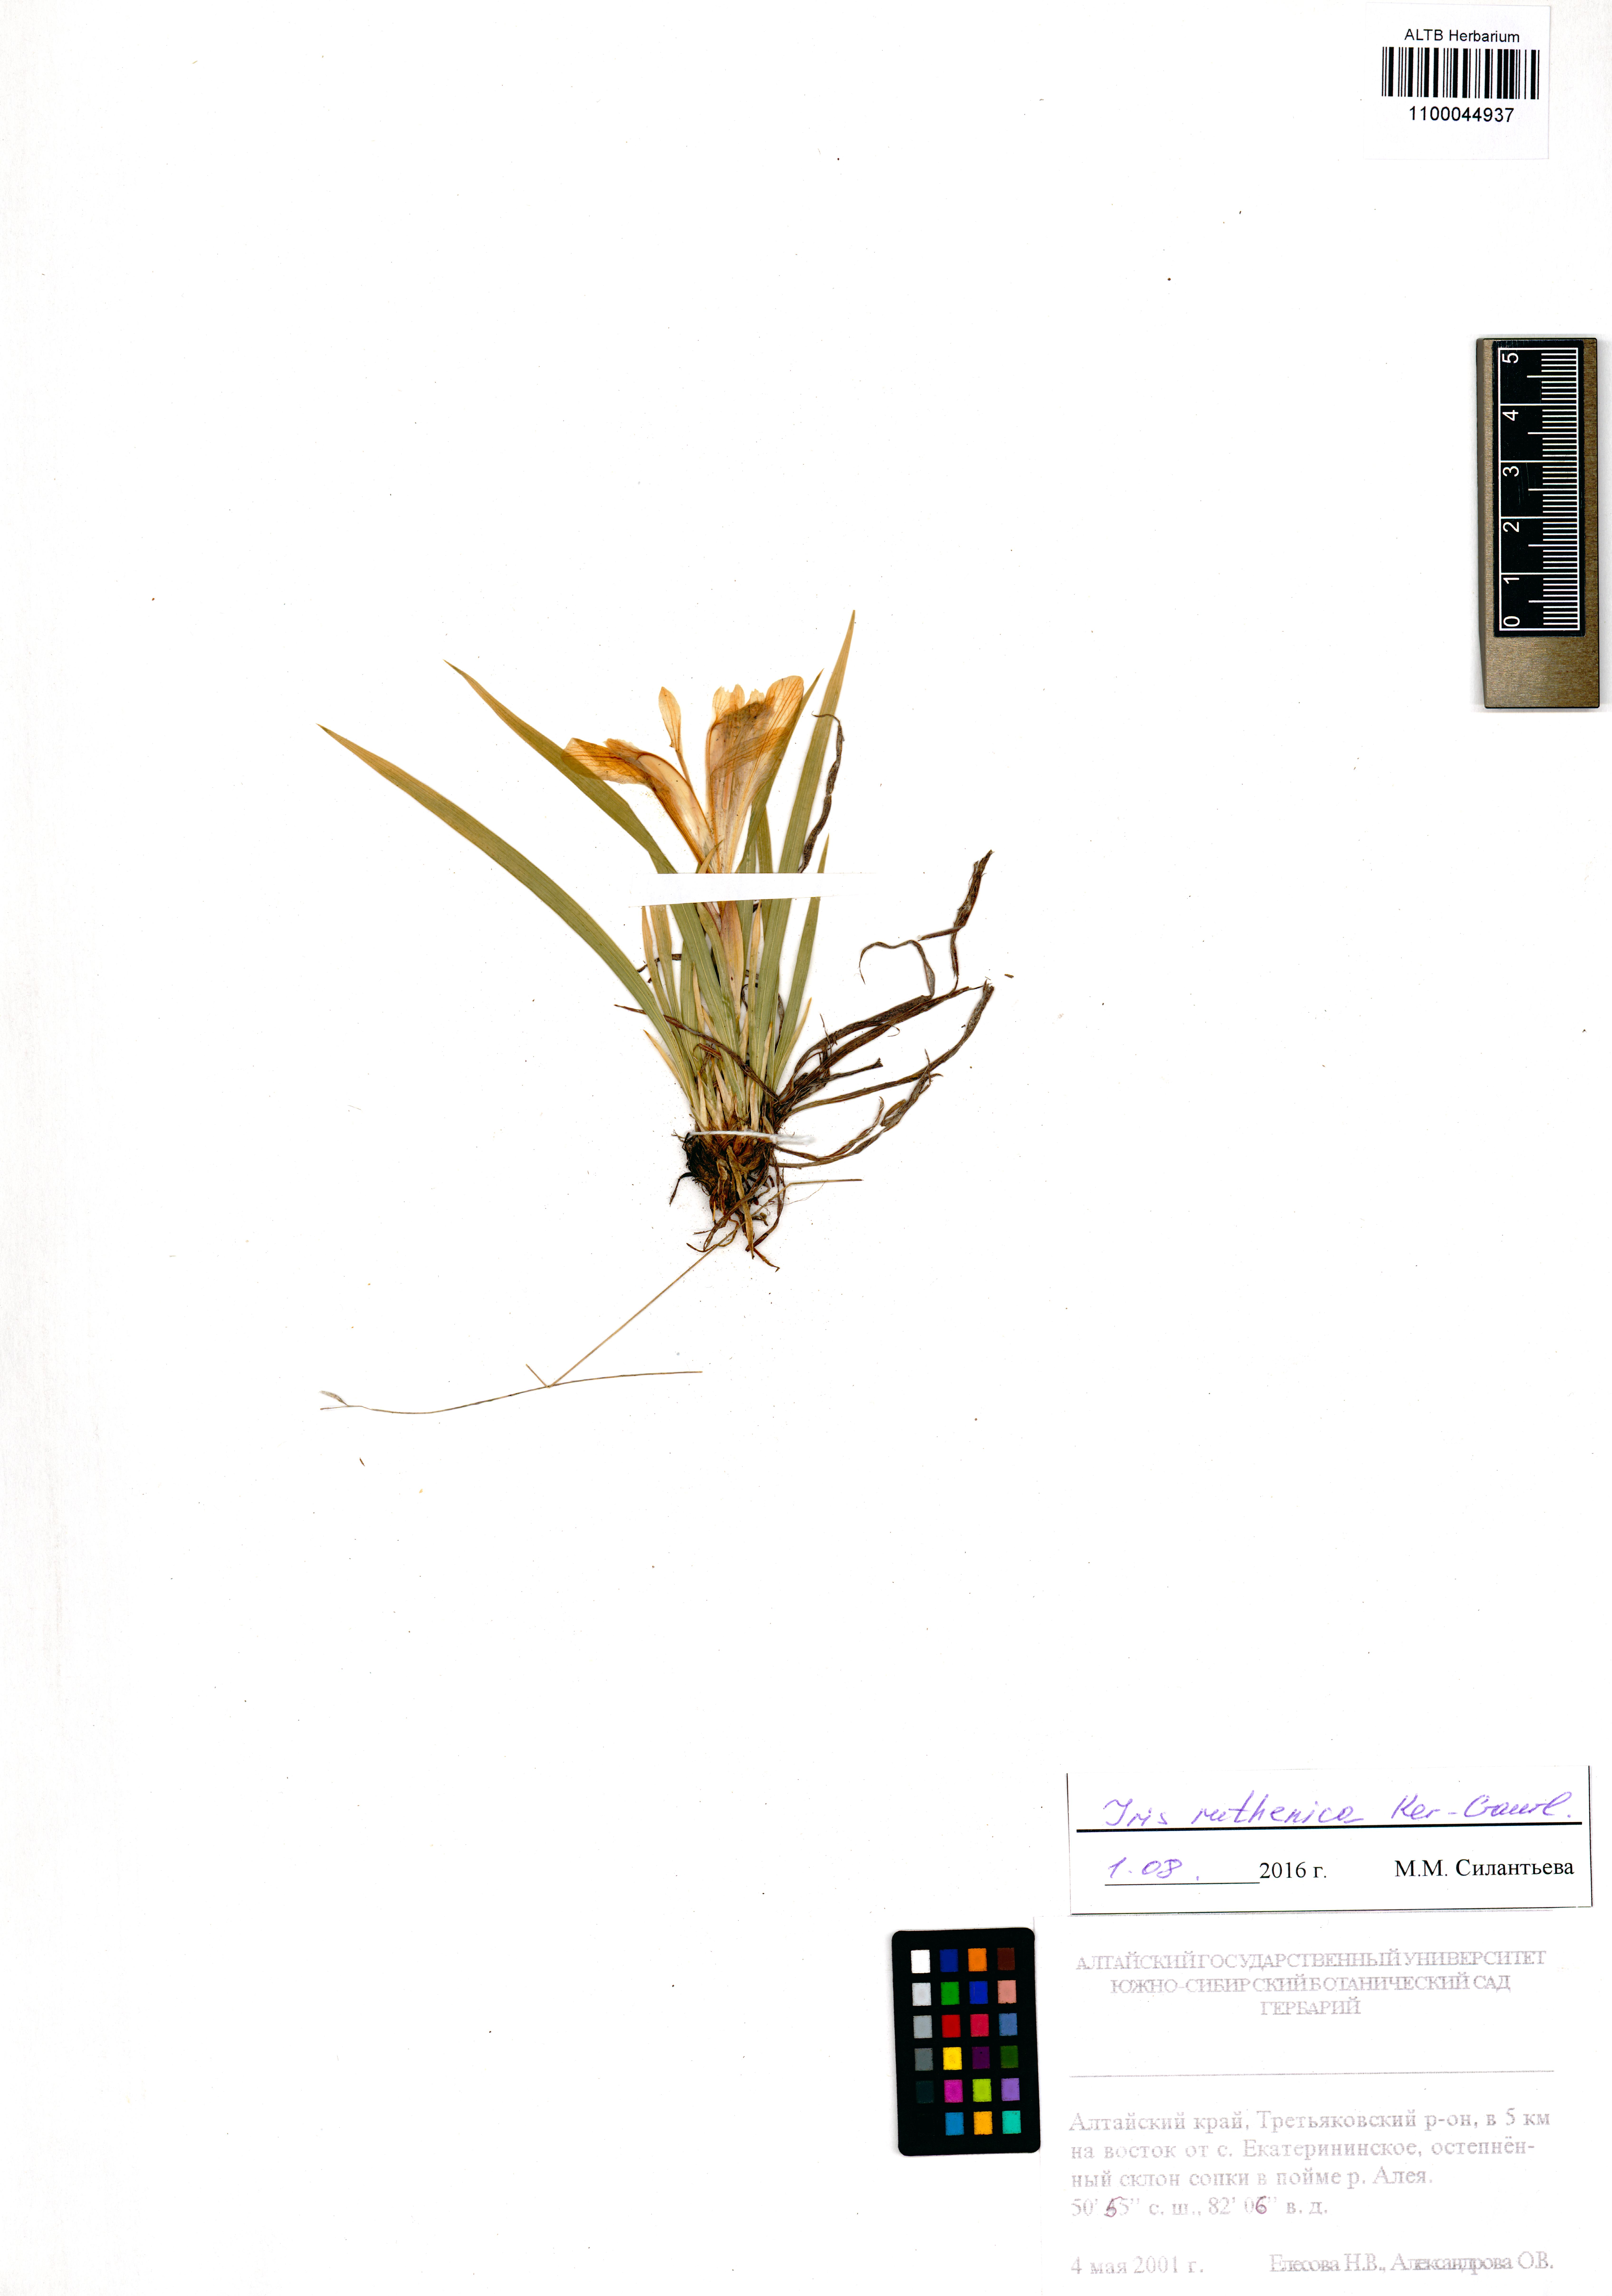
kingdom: Plantae
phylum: Tracheophyta
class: Liliopsida
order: Asparagales
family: Iridaceae
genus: Iris
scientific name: Iris ruthenica
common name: Purple-bract iris
